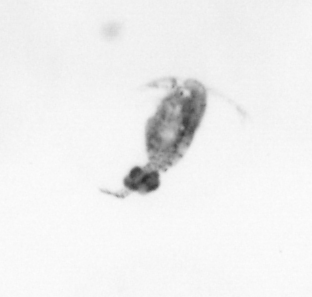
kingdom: Animalia
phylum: Arthropoda
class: Copepoda
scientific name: Copepoda
